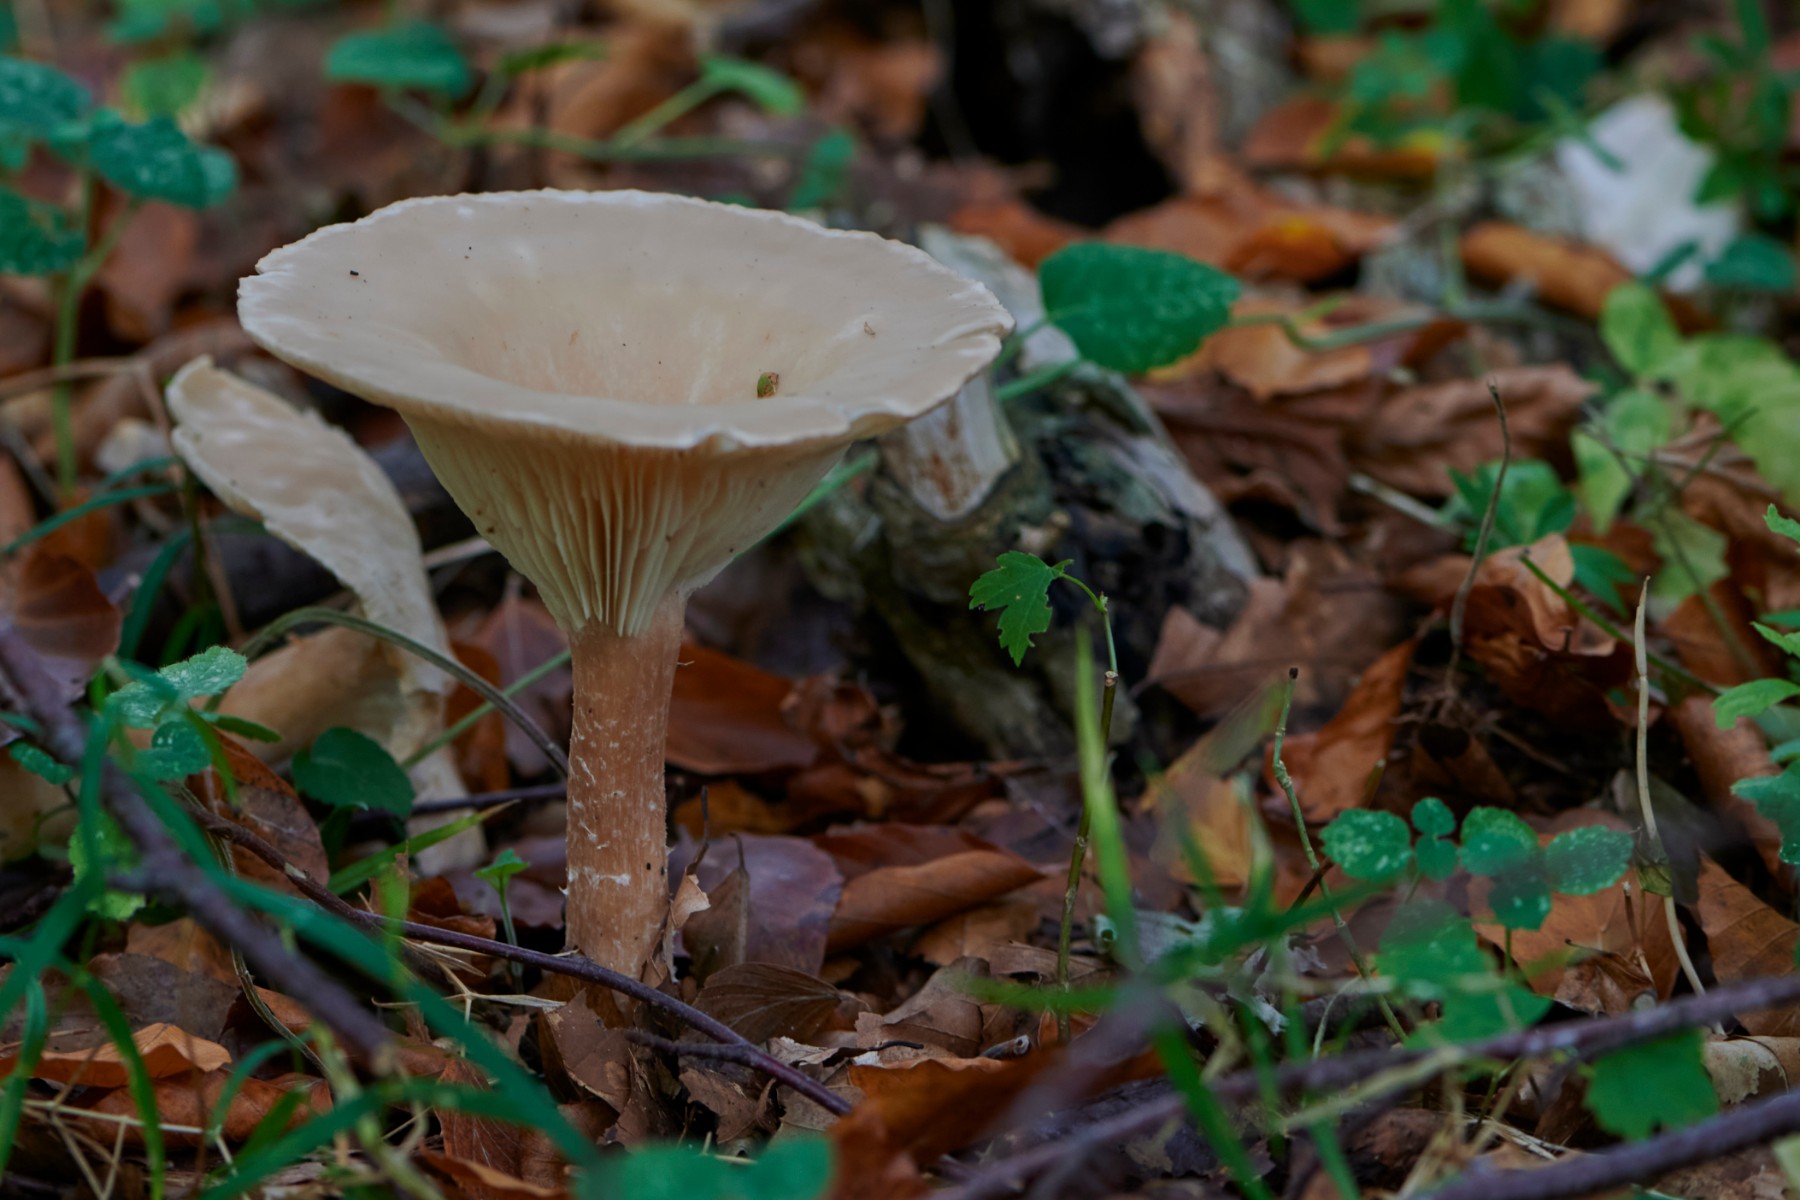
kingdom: Fungi
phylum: Basidiomycota
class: Agaricomycetes
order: Agaricales
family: Tricholomataceae
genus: Infundibulicybe
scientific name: Infundibulicybe geotropa
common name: stor tragthat
